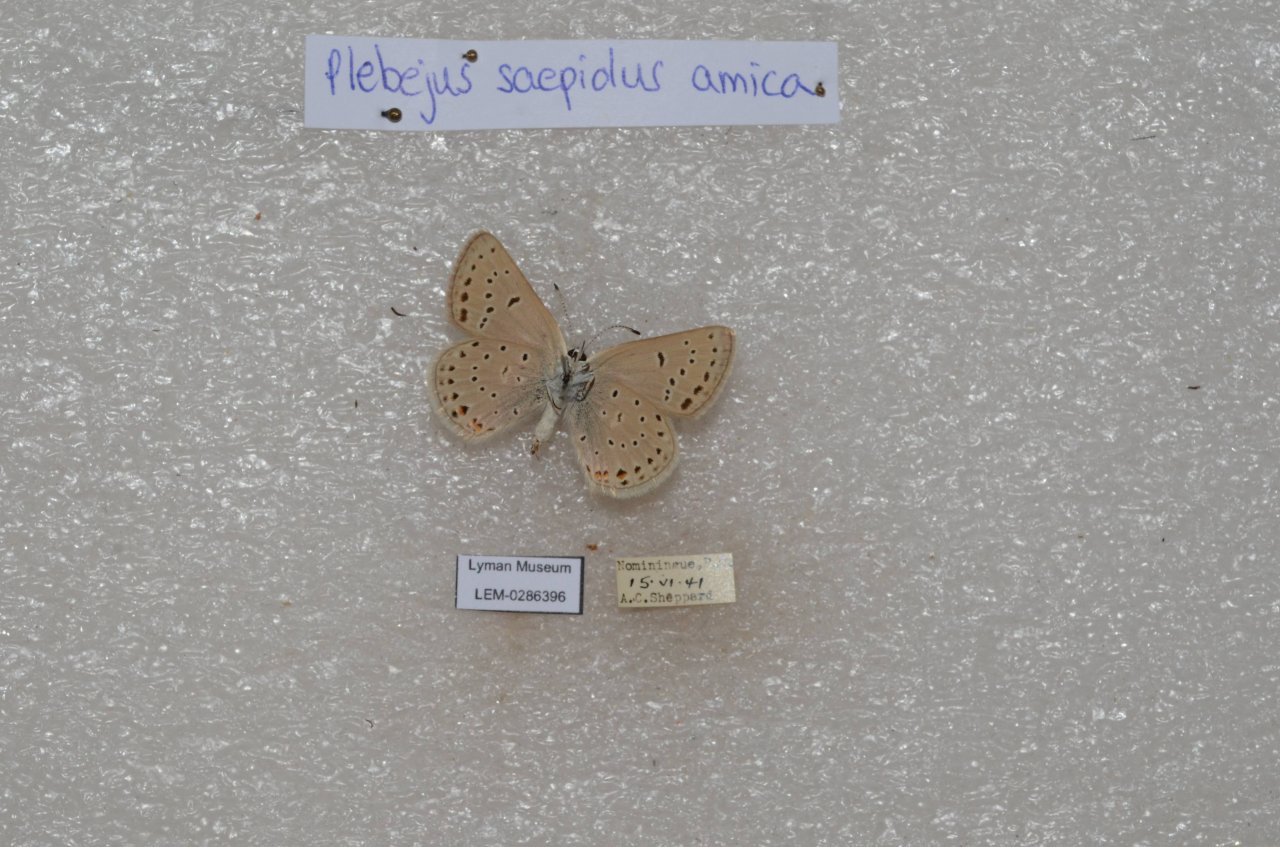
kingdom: Animalia
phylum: Arthropoda
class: Insecta
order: Lepidoptera
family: Lycaenidae
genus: Plebejus
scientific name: Plebejus saepiolus
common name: Greenish Blue
